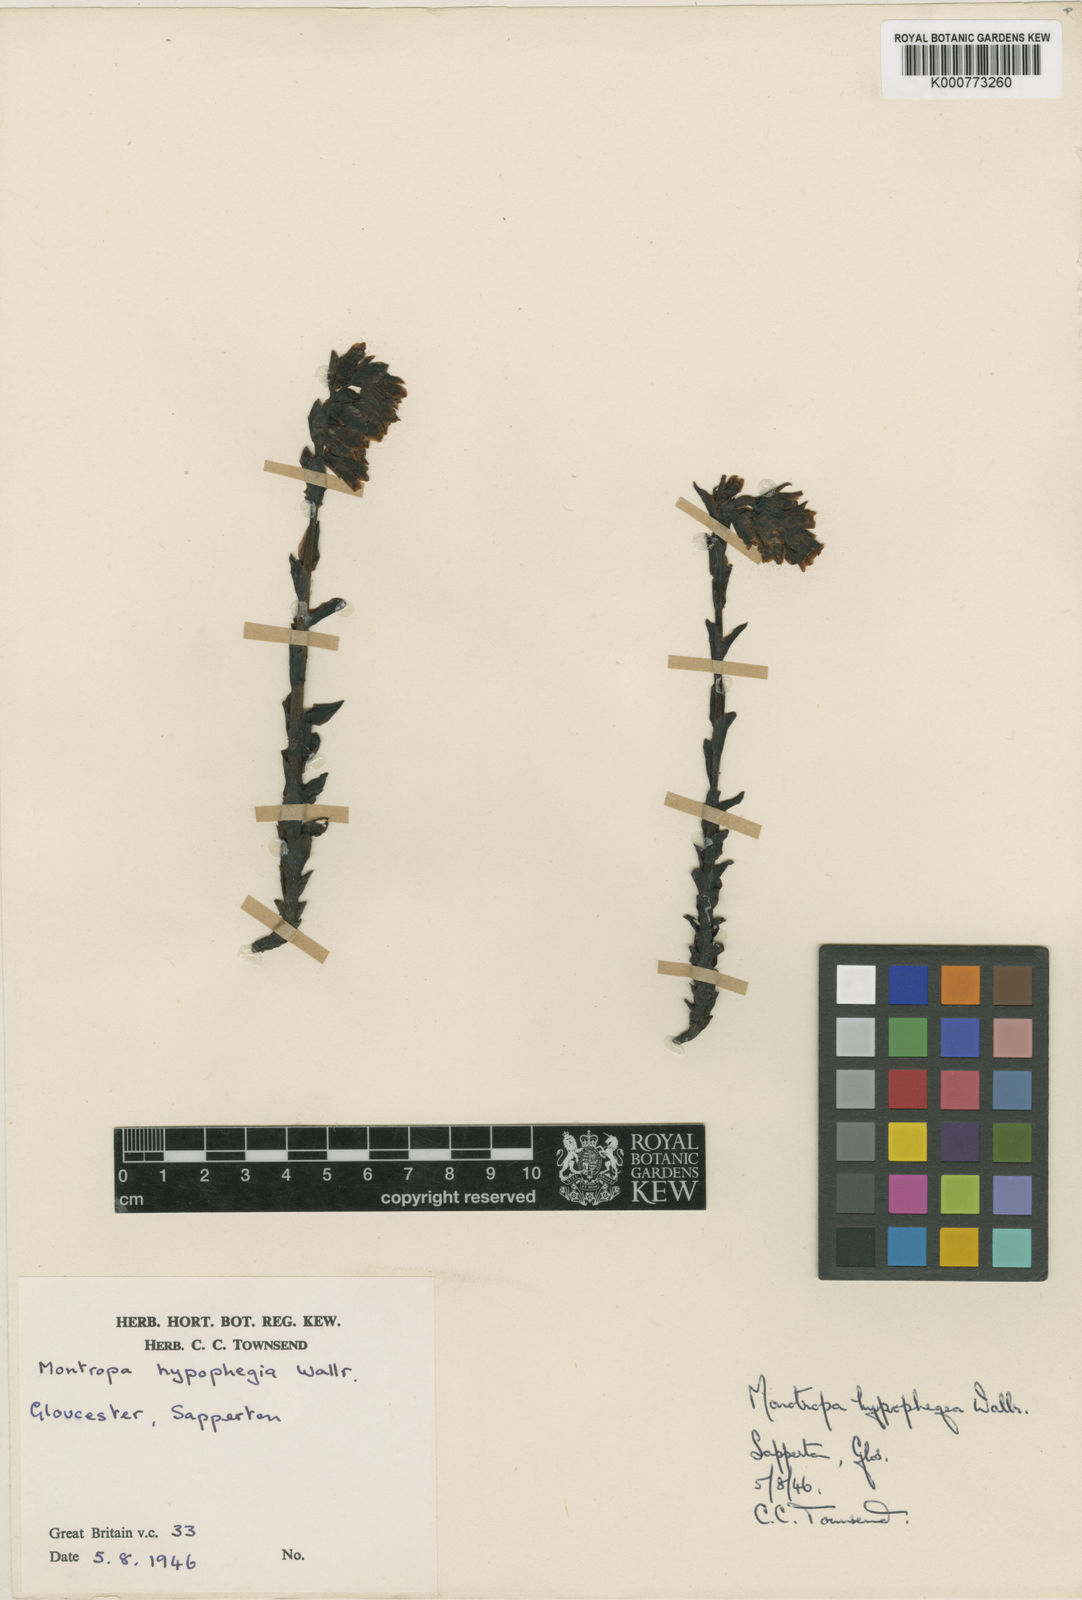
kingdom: Plantae
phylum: Tracheophyta
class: Magnoliopsida
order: Ericales
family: Ericaceae
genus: Monotropa
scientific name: Monotropa
